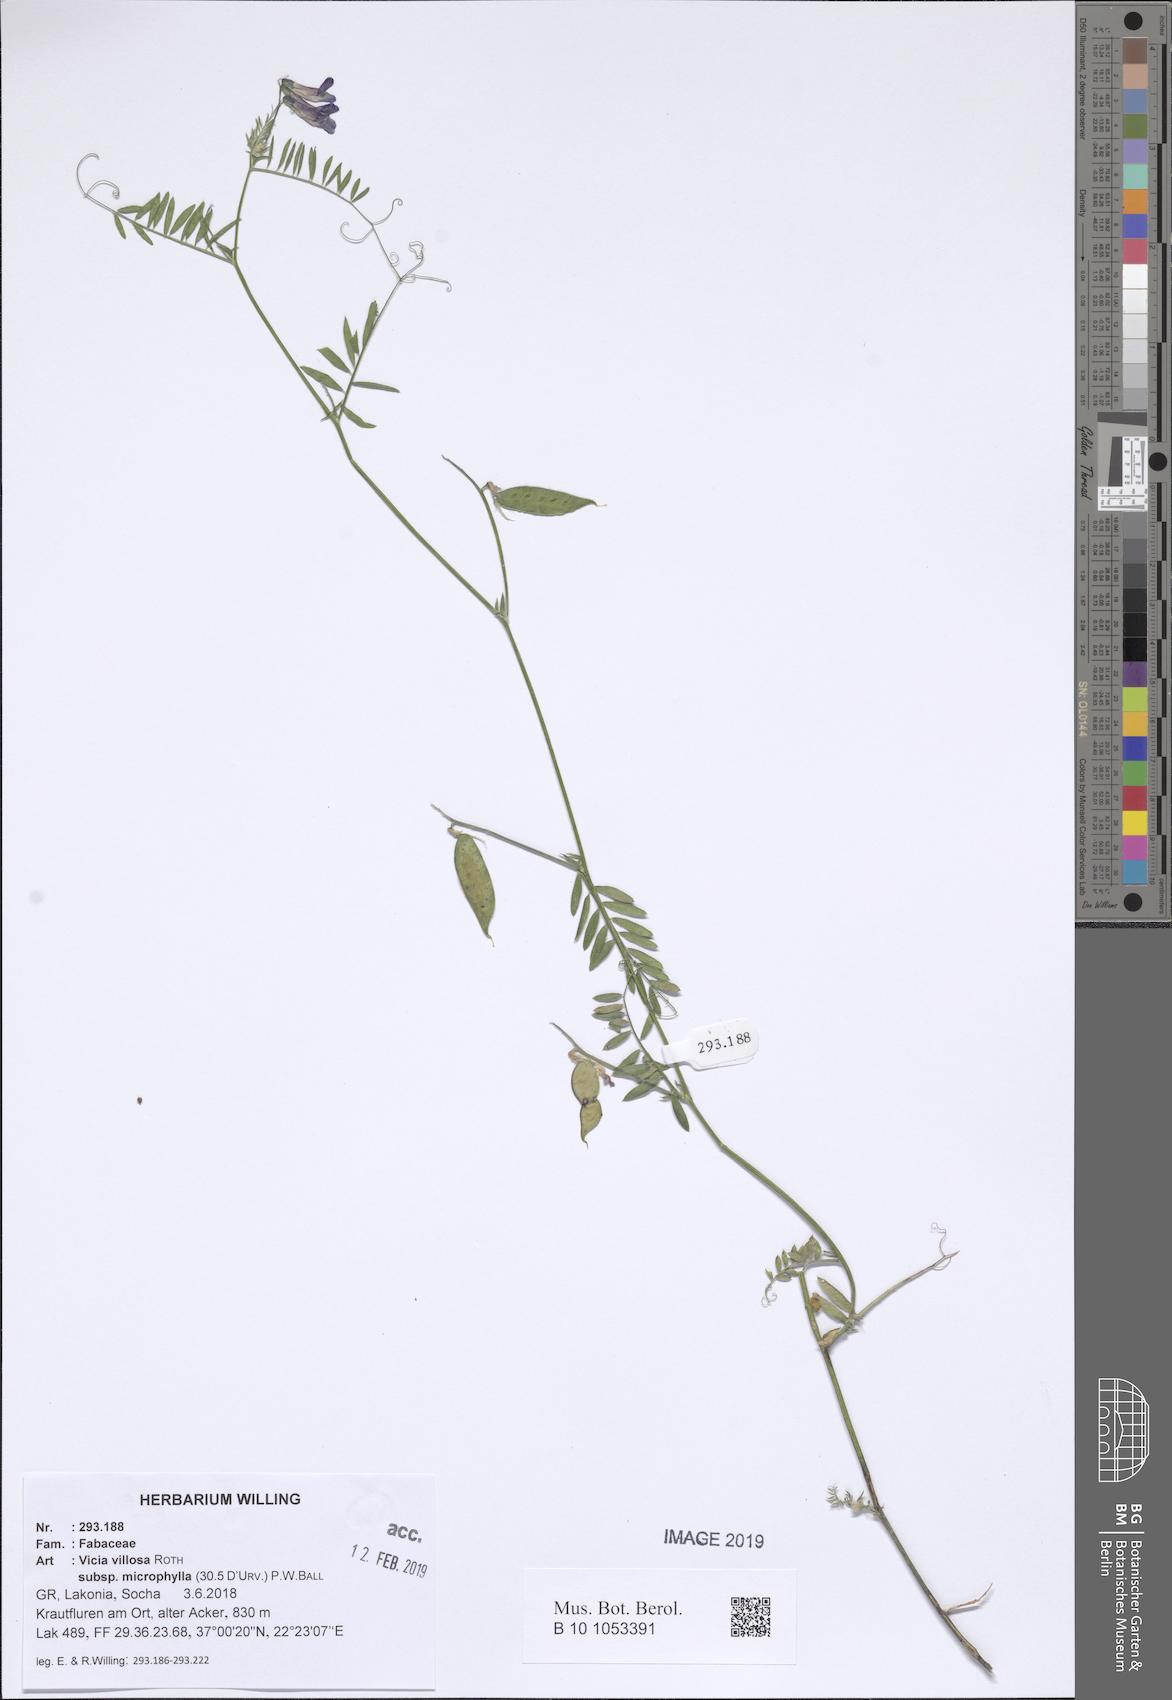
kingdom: Plantae
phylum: Tracheophyta
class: Magnoliopsida
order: Fabales
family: Fabaceae
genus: Vicia
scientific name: Vicia villosa
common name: Fodder vetch
